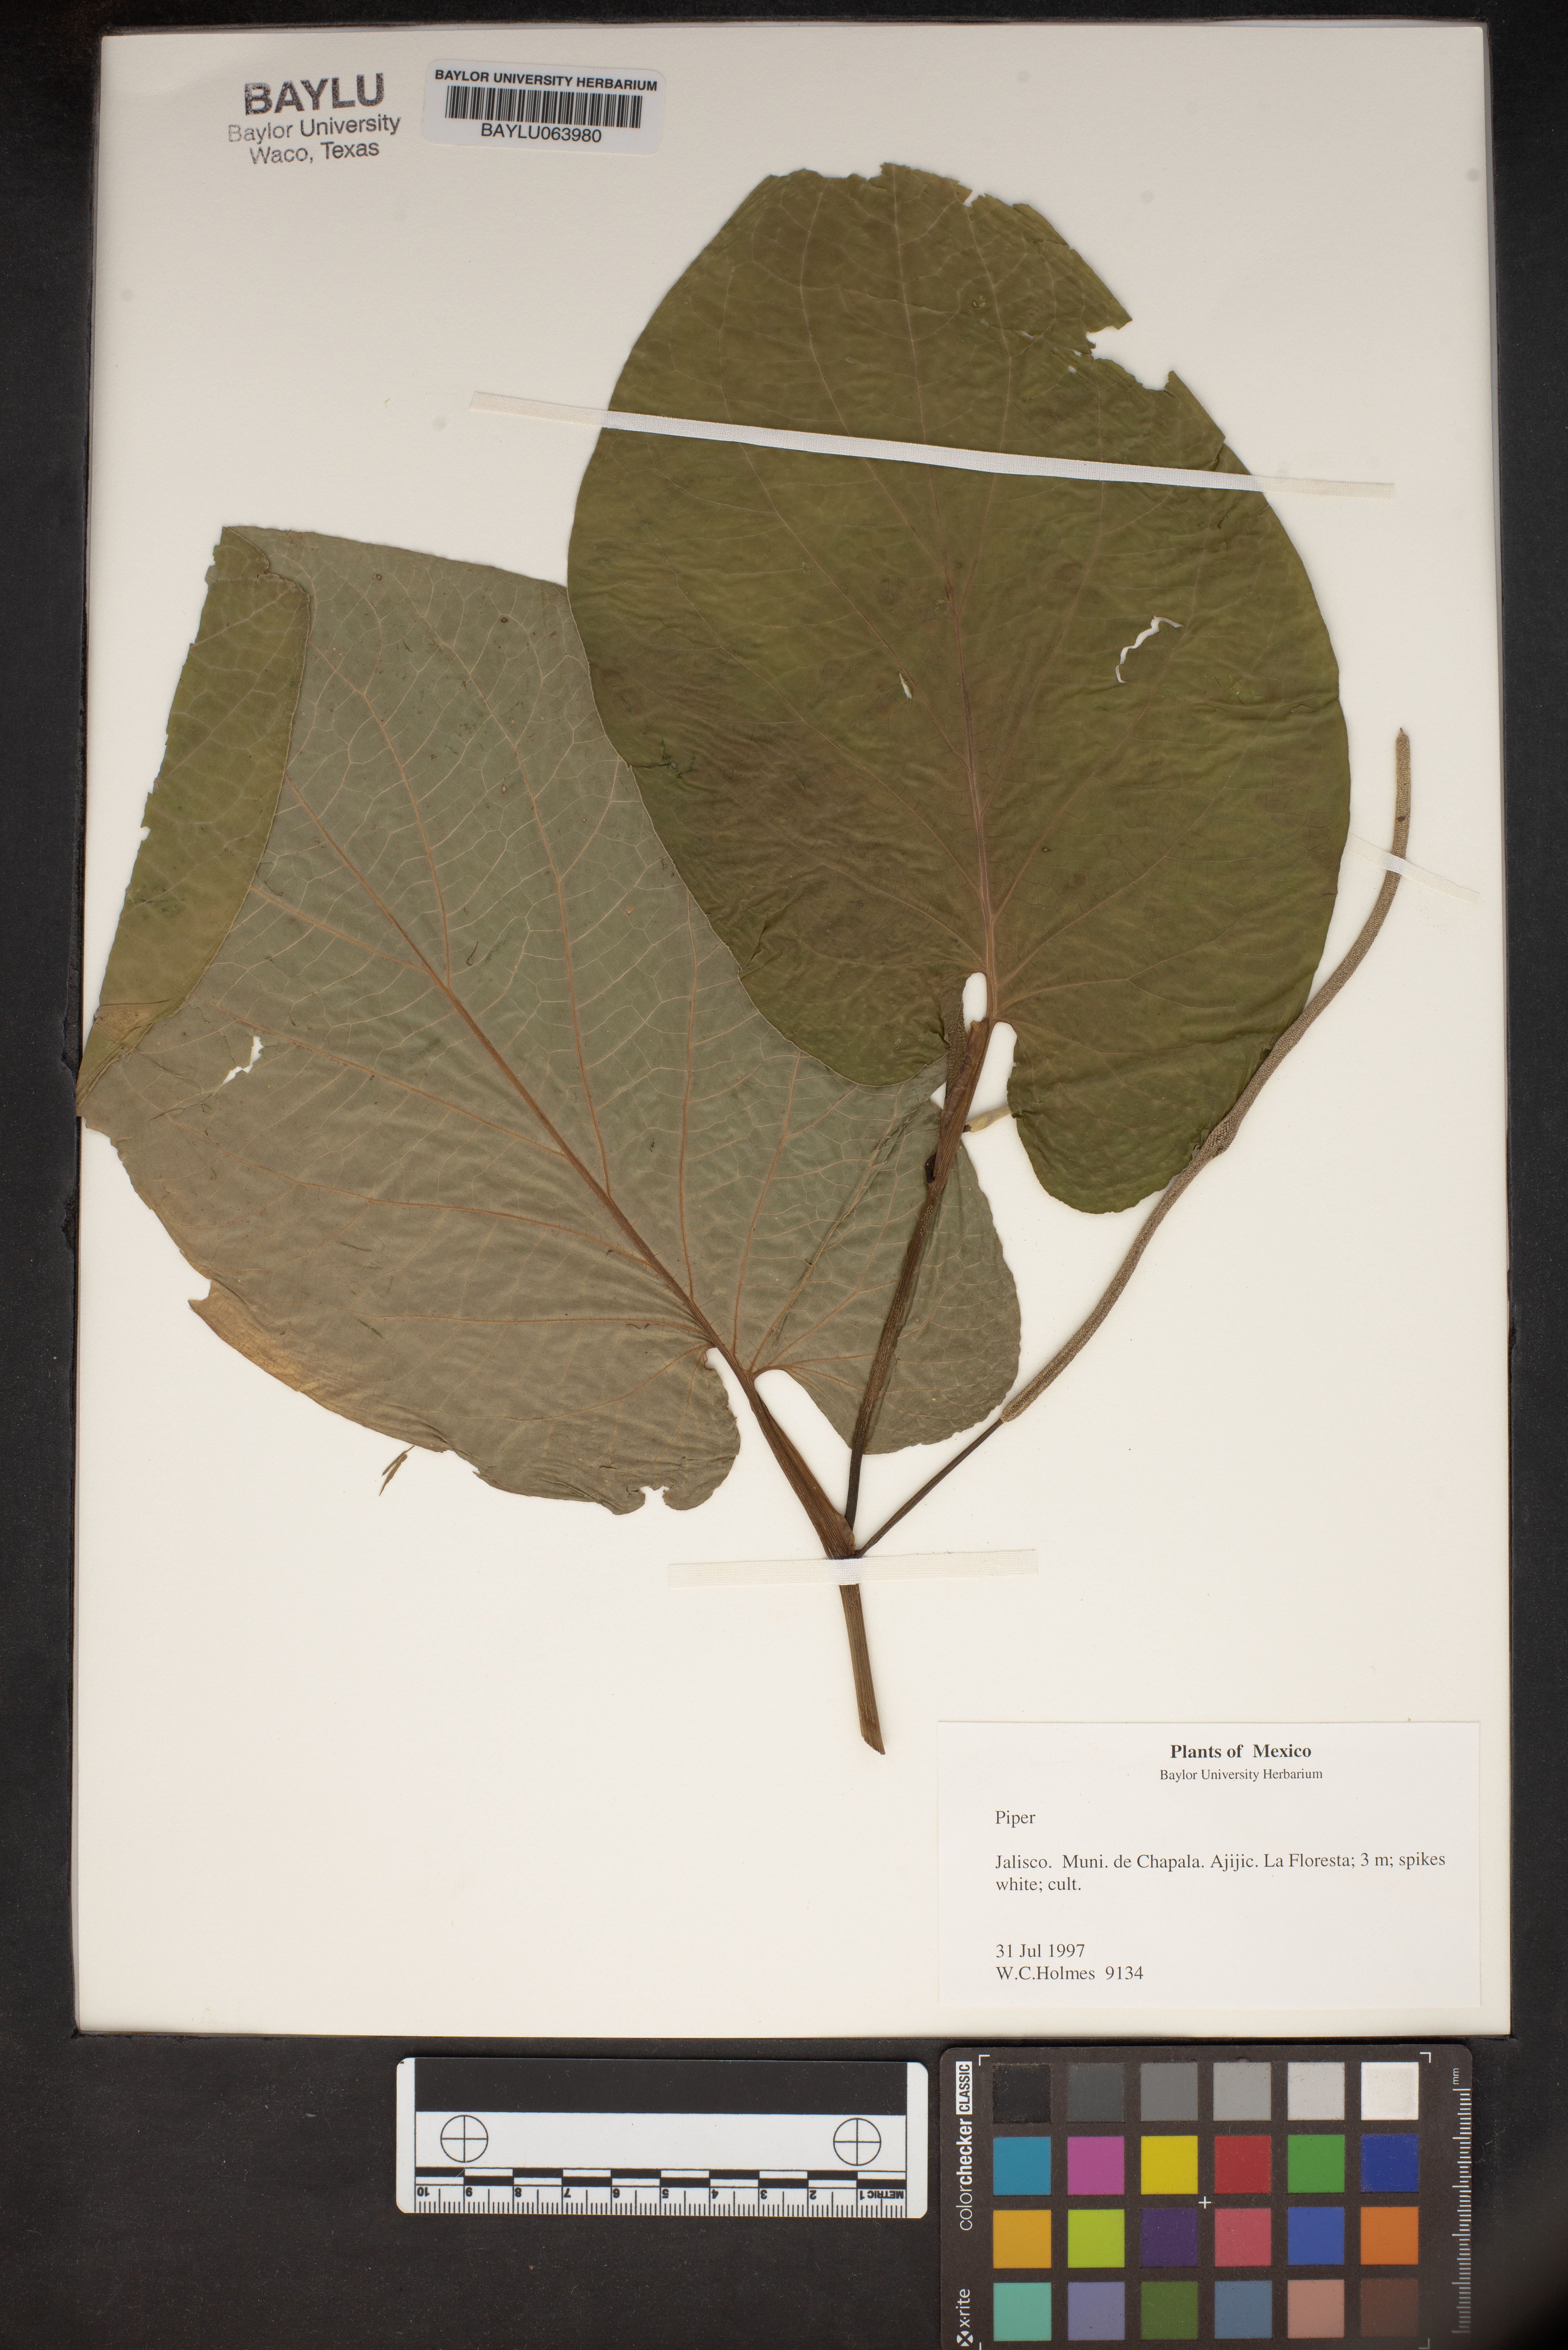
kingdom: Plantae
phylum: Tracheophyta
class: Magnoliopsida
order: Piperales
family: Piperaceae
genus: Piper
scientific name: Piper
